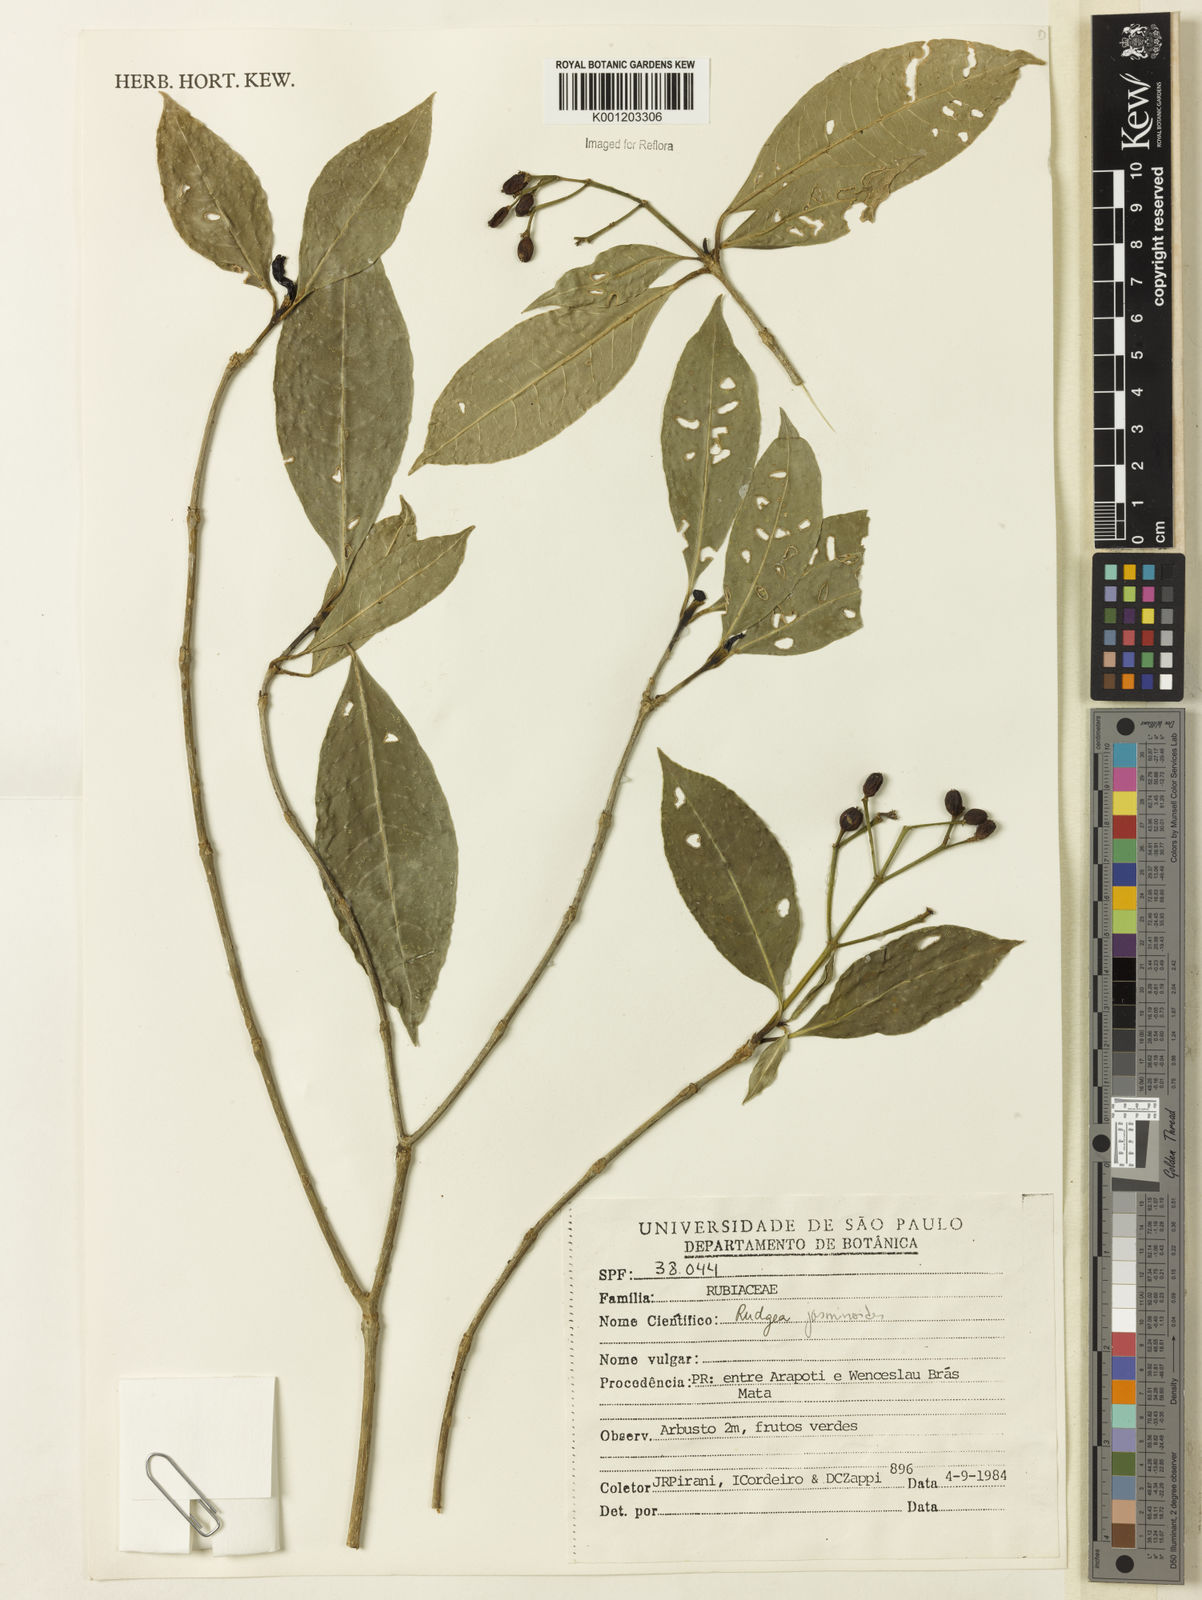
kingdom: Plantae
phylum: Tracheophyta
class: Magnoliopsida
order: Gentianales
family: Rubiaceae
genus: Rudgea
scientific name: Rudgea
